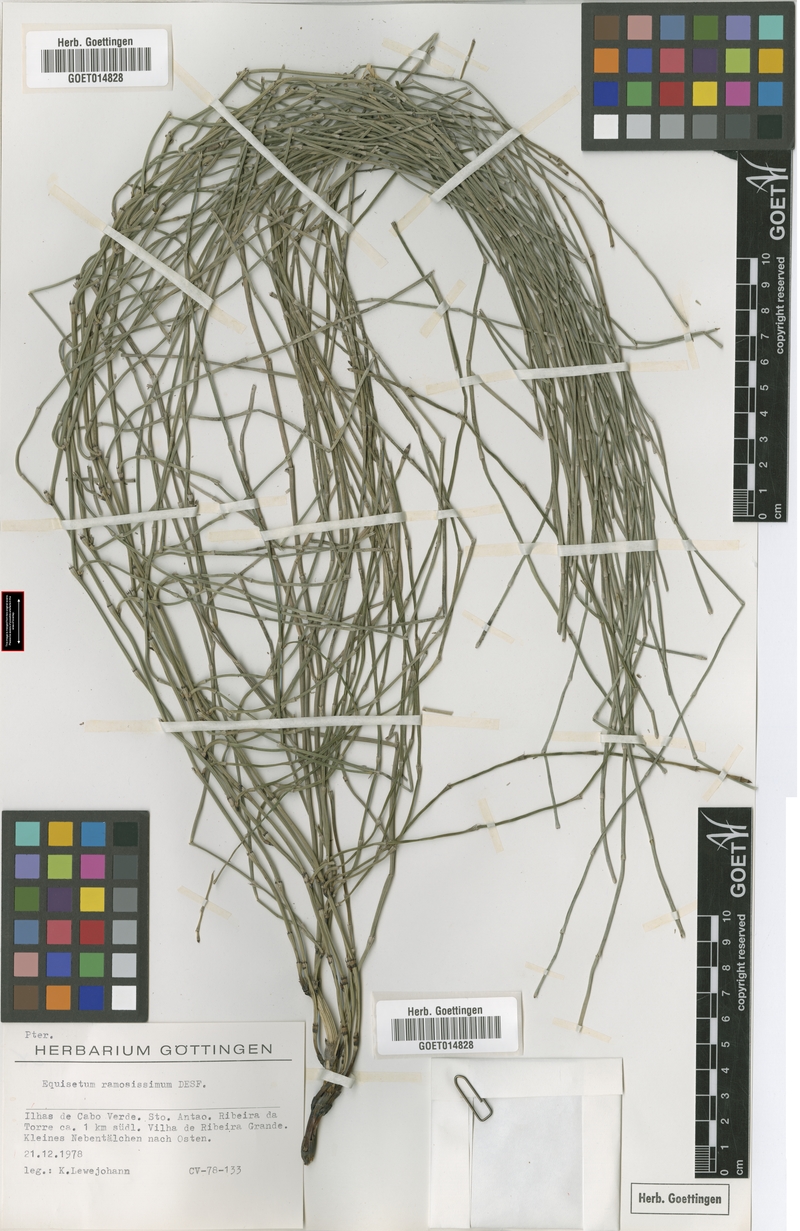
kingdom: Plantae
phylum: Tracheophyta
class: Polypodiopsida
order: Equisetales
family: Equisetaceae
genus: Equisetum
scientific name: Equisetum ramosissimum
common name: Branched horsetail
